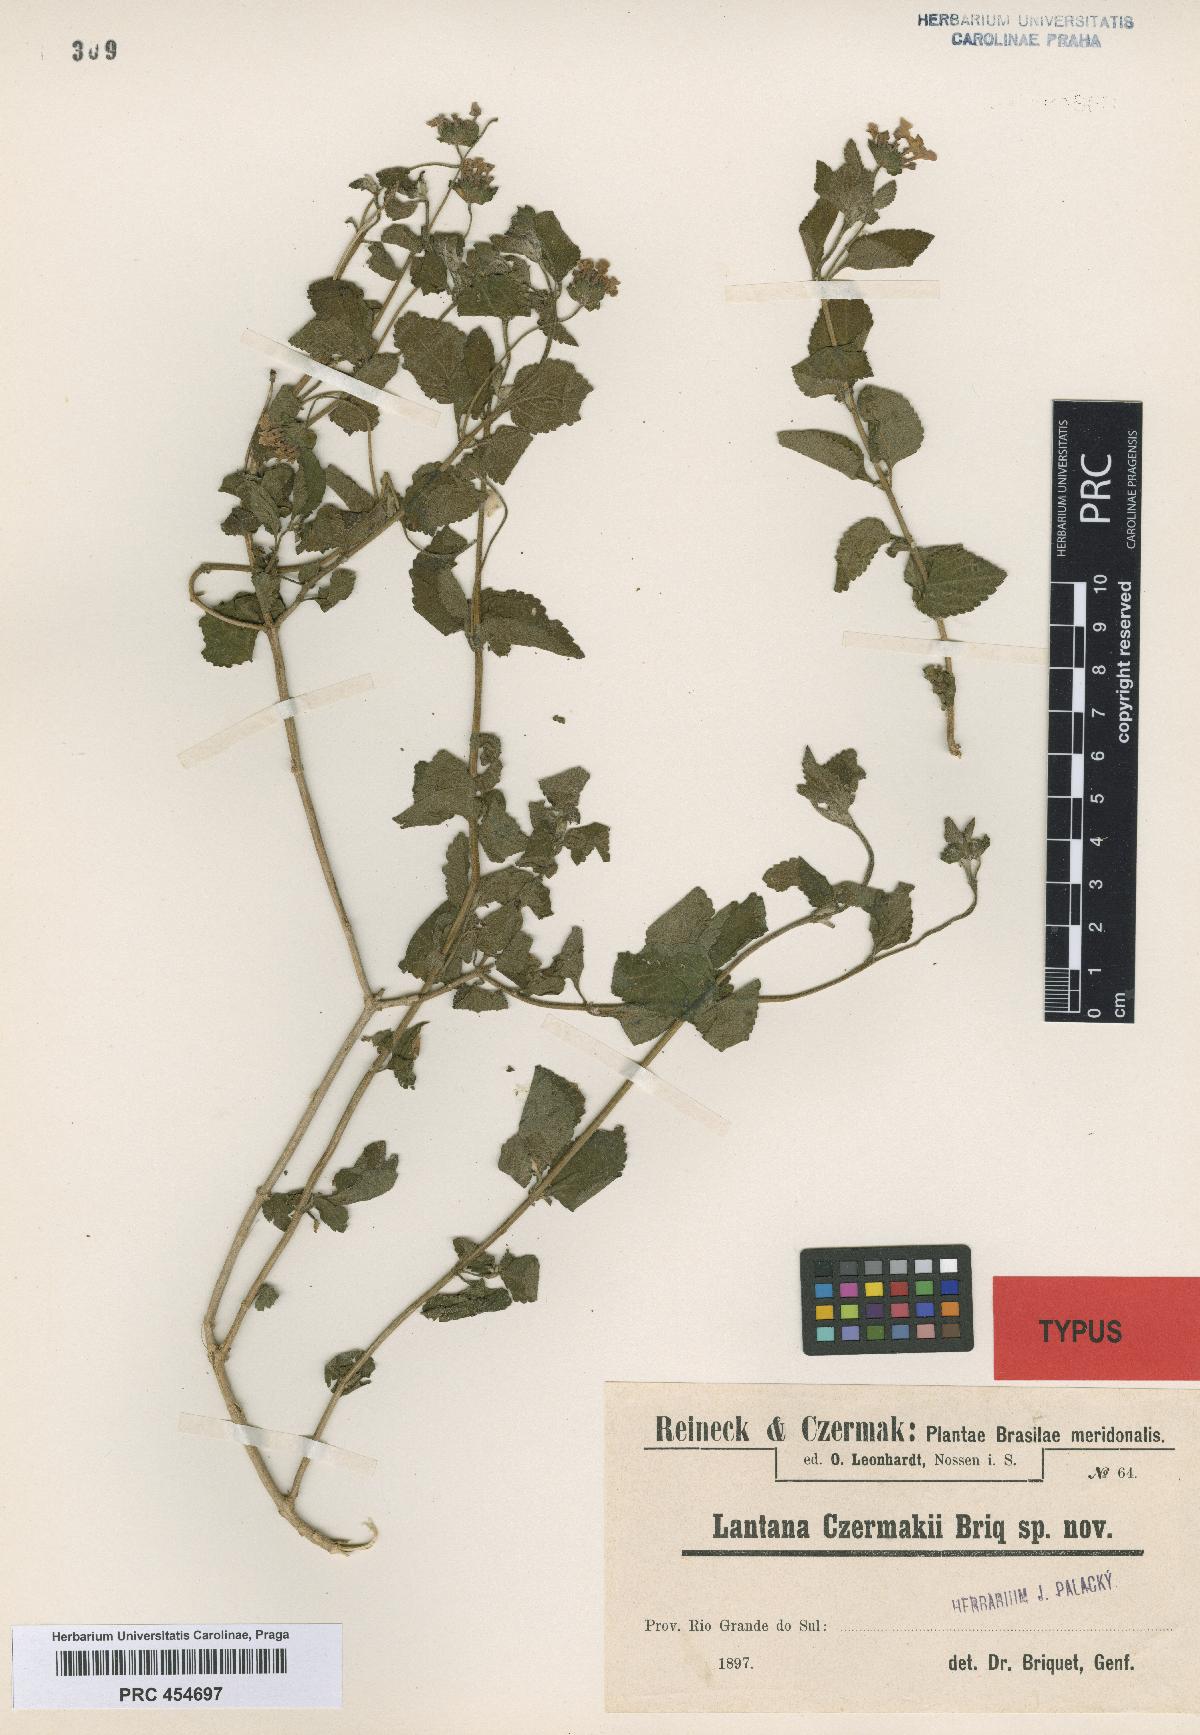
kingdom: Plantae
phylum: Tracheophyta
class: Magnoliopsida
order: Lamiales
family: Verbenaceae
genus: Lantana
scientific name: Lantana fucata
